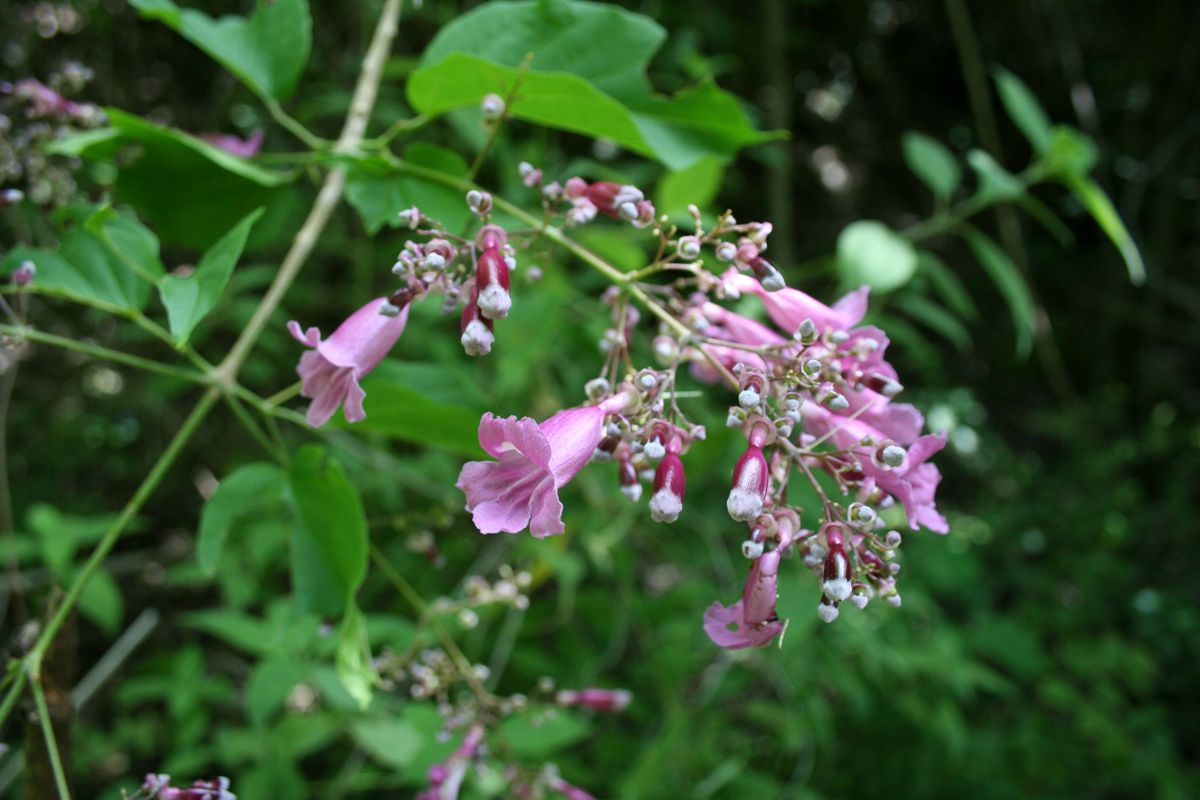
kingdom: Plantae
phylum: Tracheophyta
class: Magnoliopsida
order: Lamiales
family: Bignoniaceae
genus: Bignonia
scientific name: Bignonia
